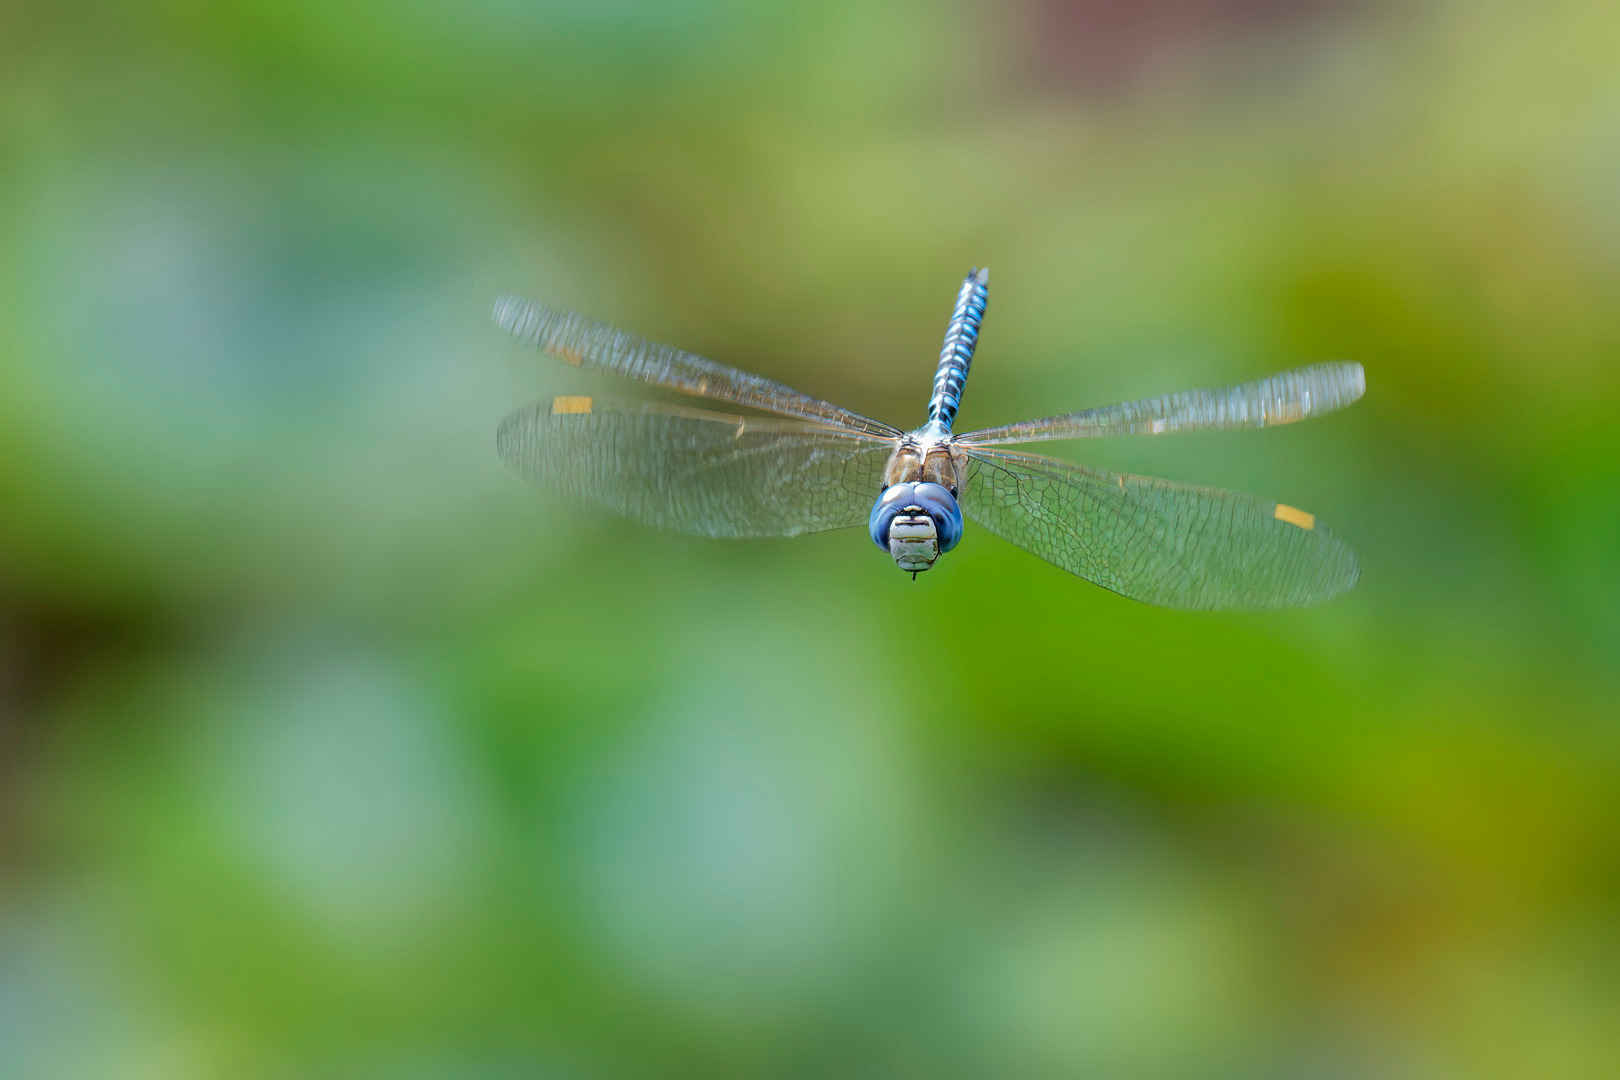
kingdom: Animalia
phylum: Arthropoda
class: Insecta
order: Odonata
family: Aeshnidae
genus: Aeshna
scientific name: Aeshna affinis
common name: Sydlig mosaikguldsmed
